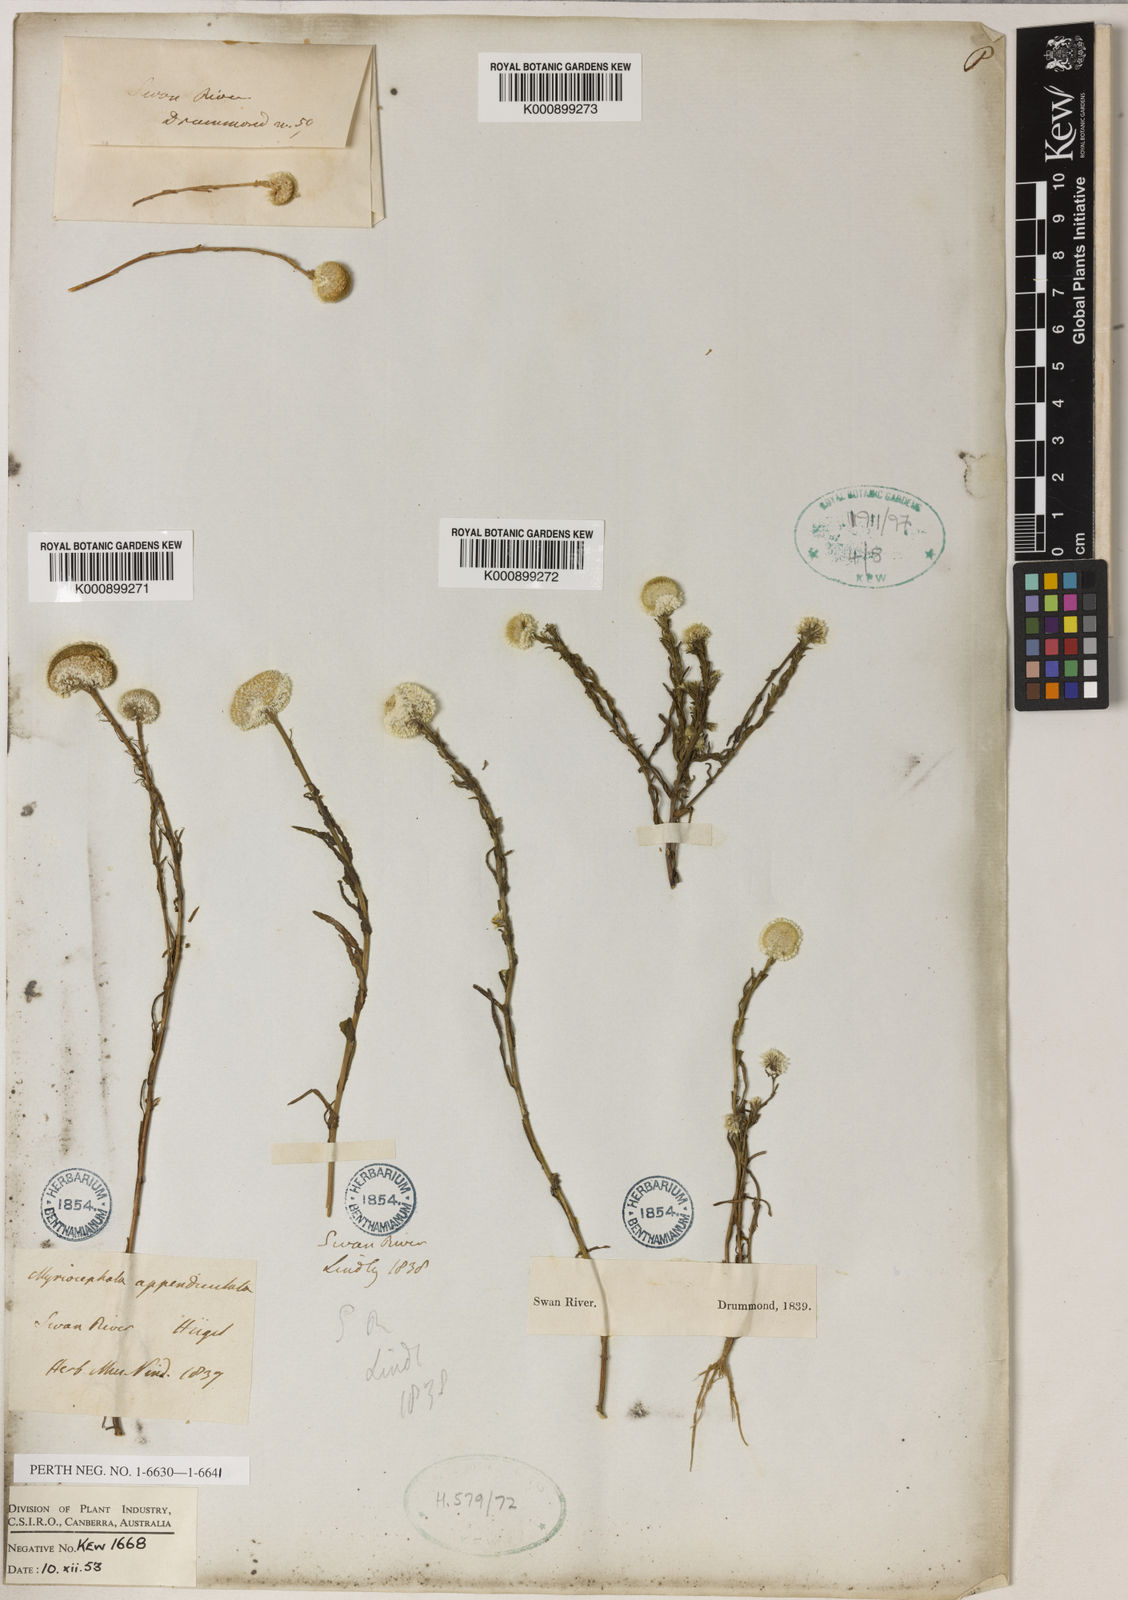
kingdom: Plantae
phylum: Tracheophyta
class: Magnoliopsida
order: Asterales
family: Asteraceae
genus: Myriocephalus
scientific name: Myriocephalus appendiculatus
